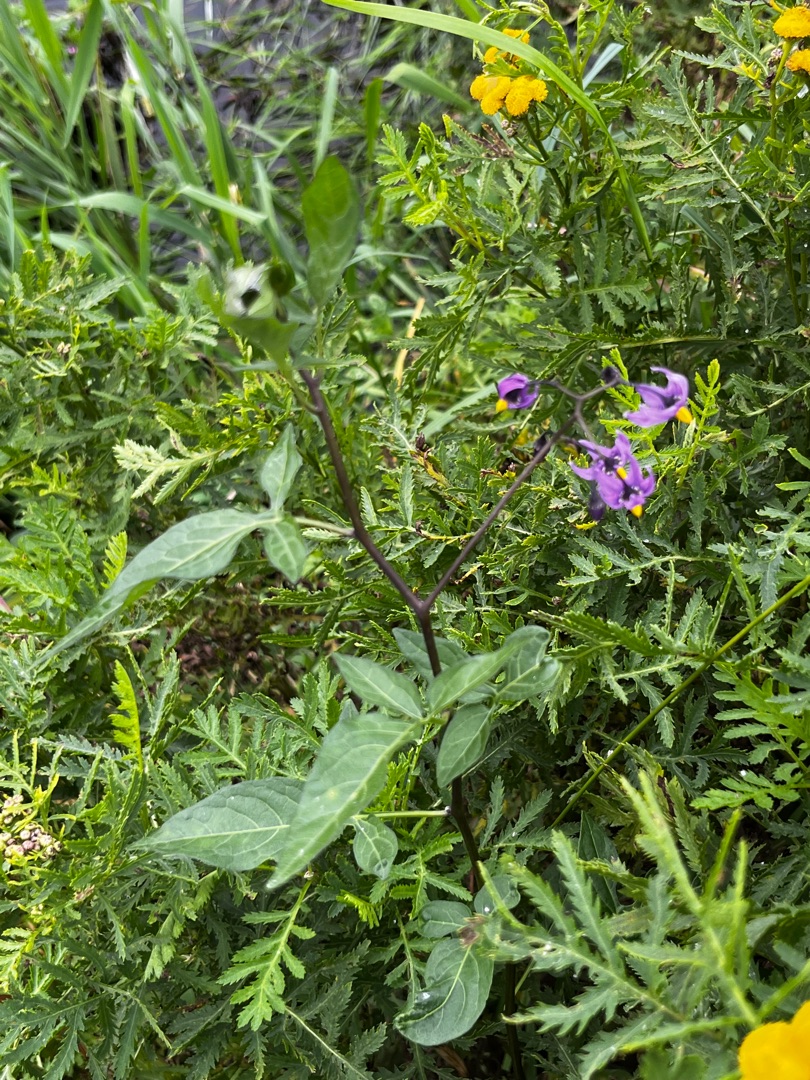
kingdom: Plantae
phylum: Tracheophyta
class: Magnoliopsida
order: Solanales
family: Solanaceae
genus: Solanum
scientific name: Solanum dulcamara
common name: Bittersød natskygge
